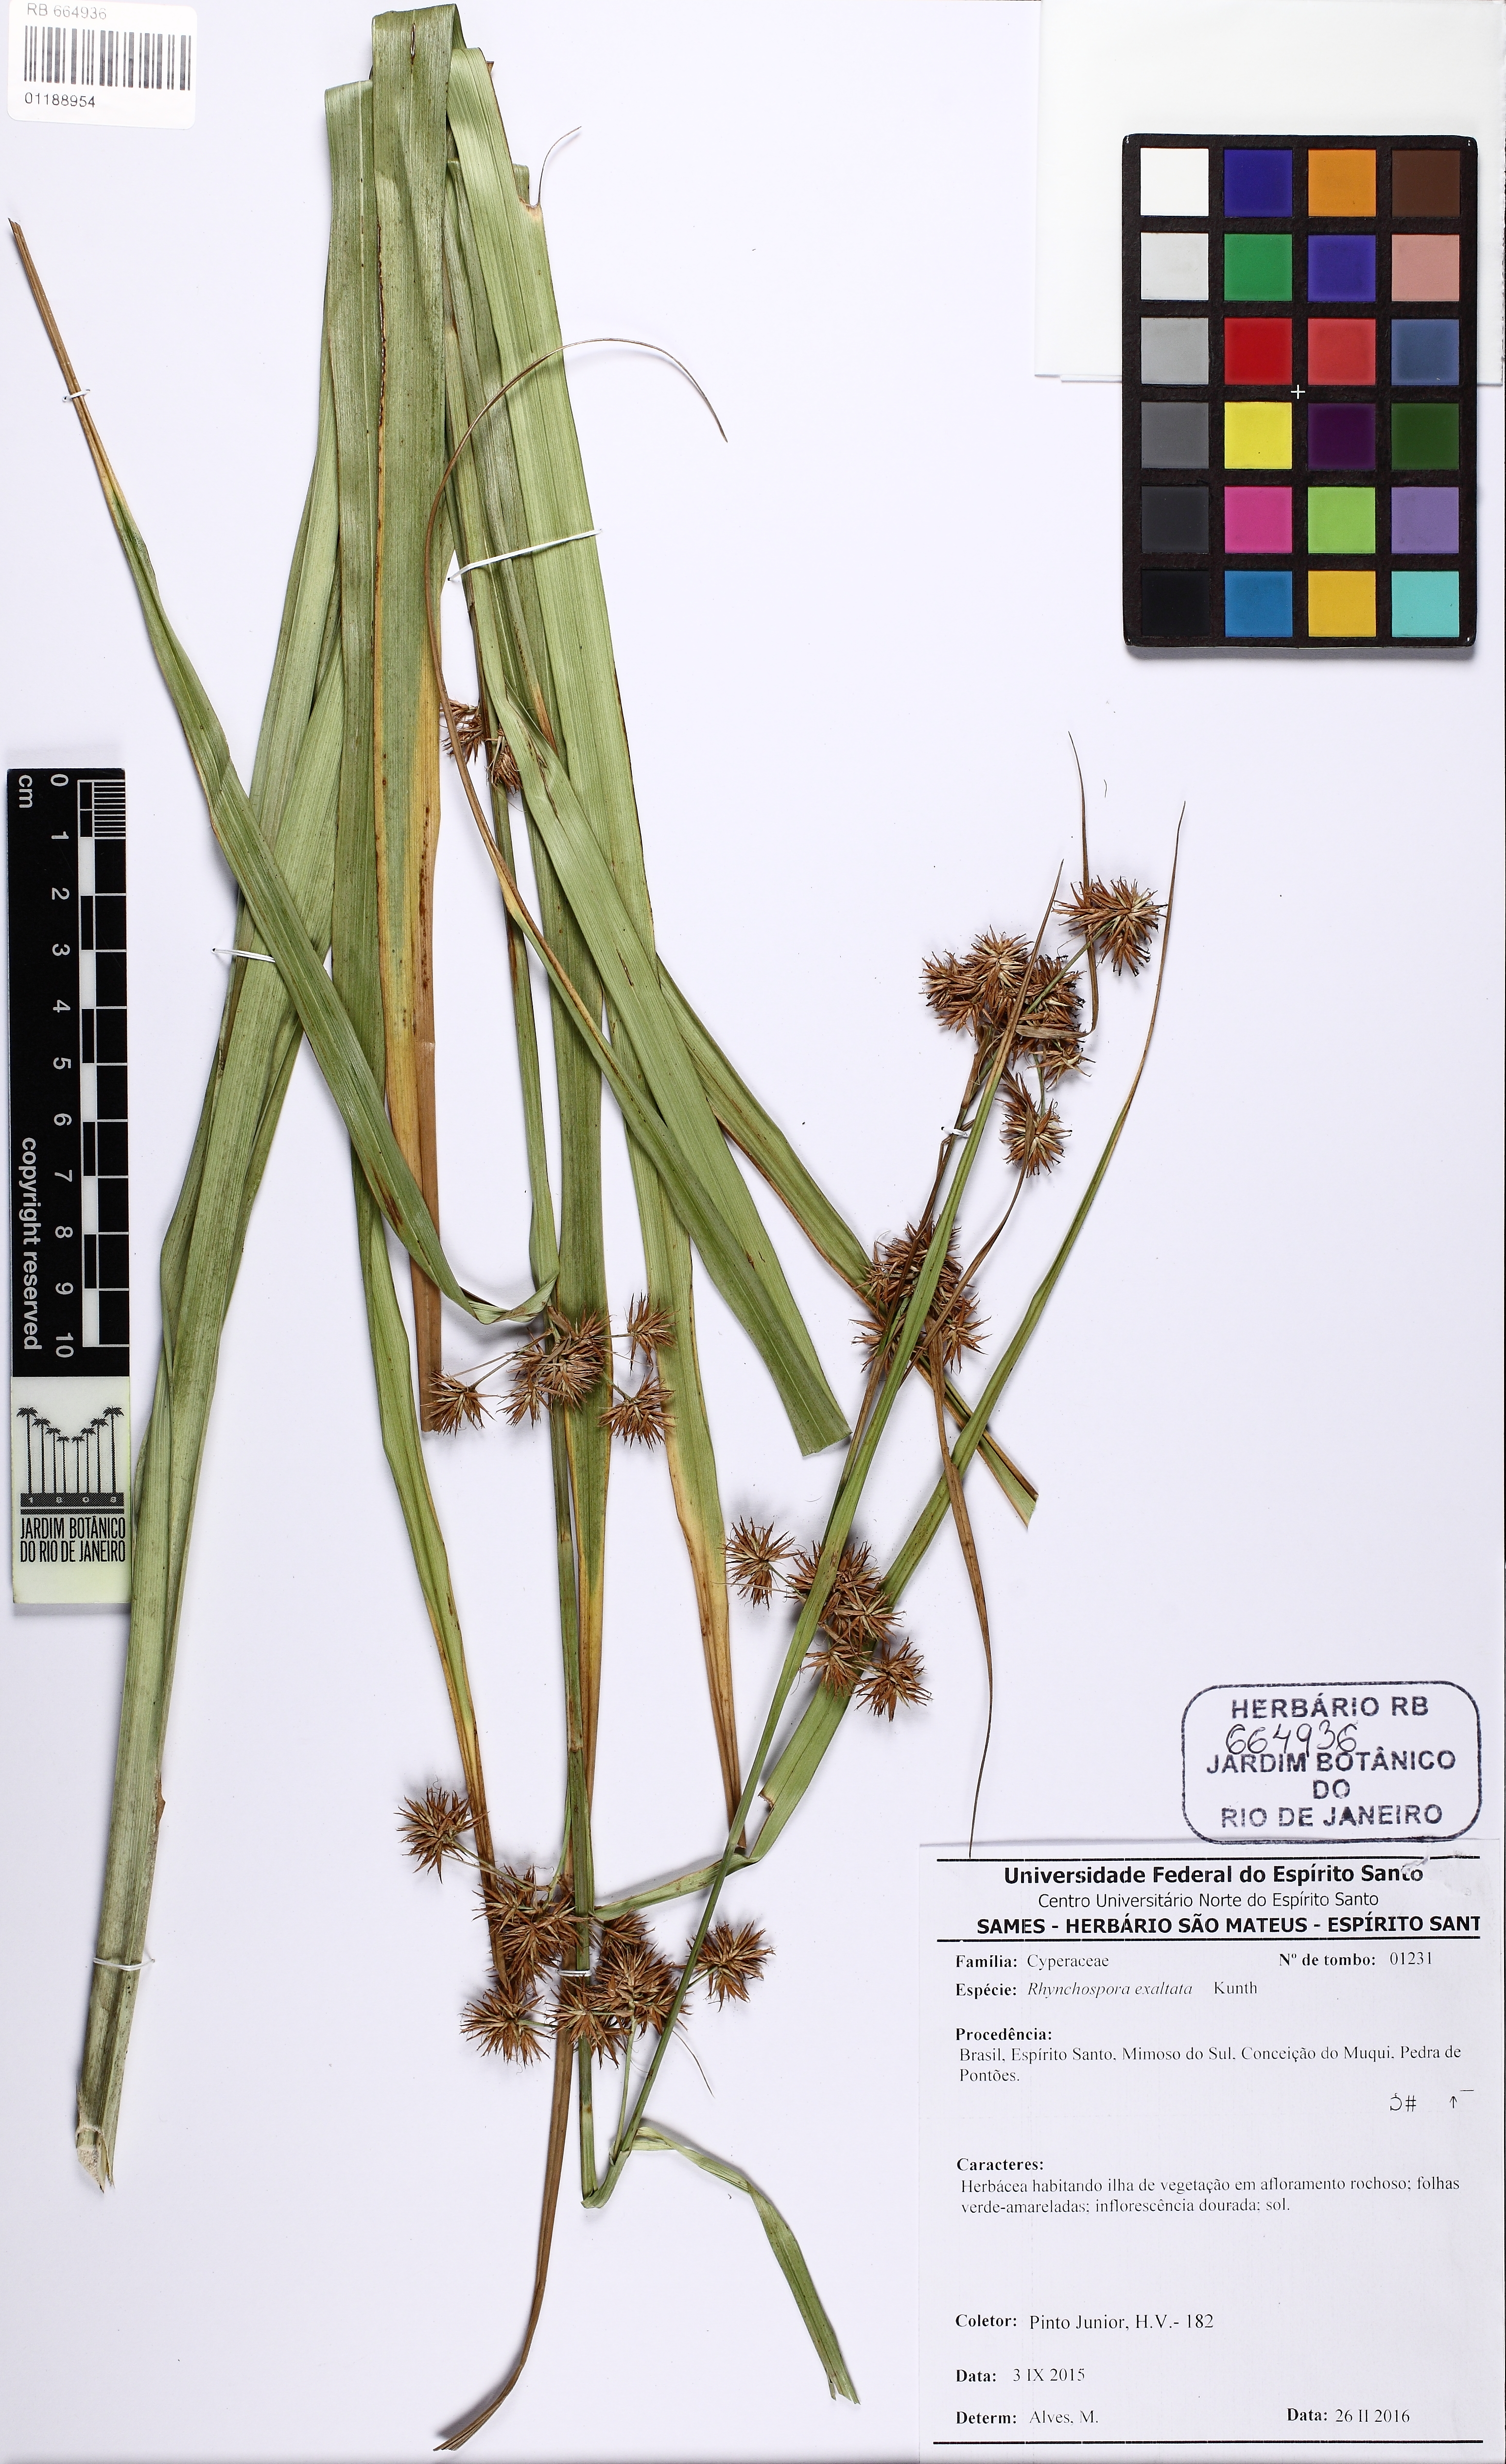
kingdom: Plantae
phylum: Tracheophyta
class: Liliopsida
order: Poales
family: Cyperaceae
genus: Rhynchospora
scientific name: Rhynchospora exaltata
